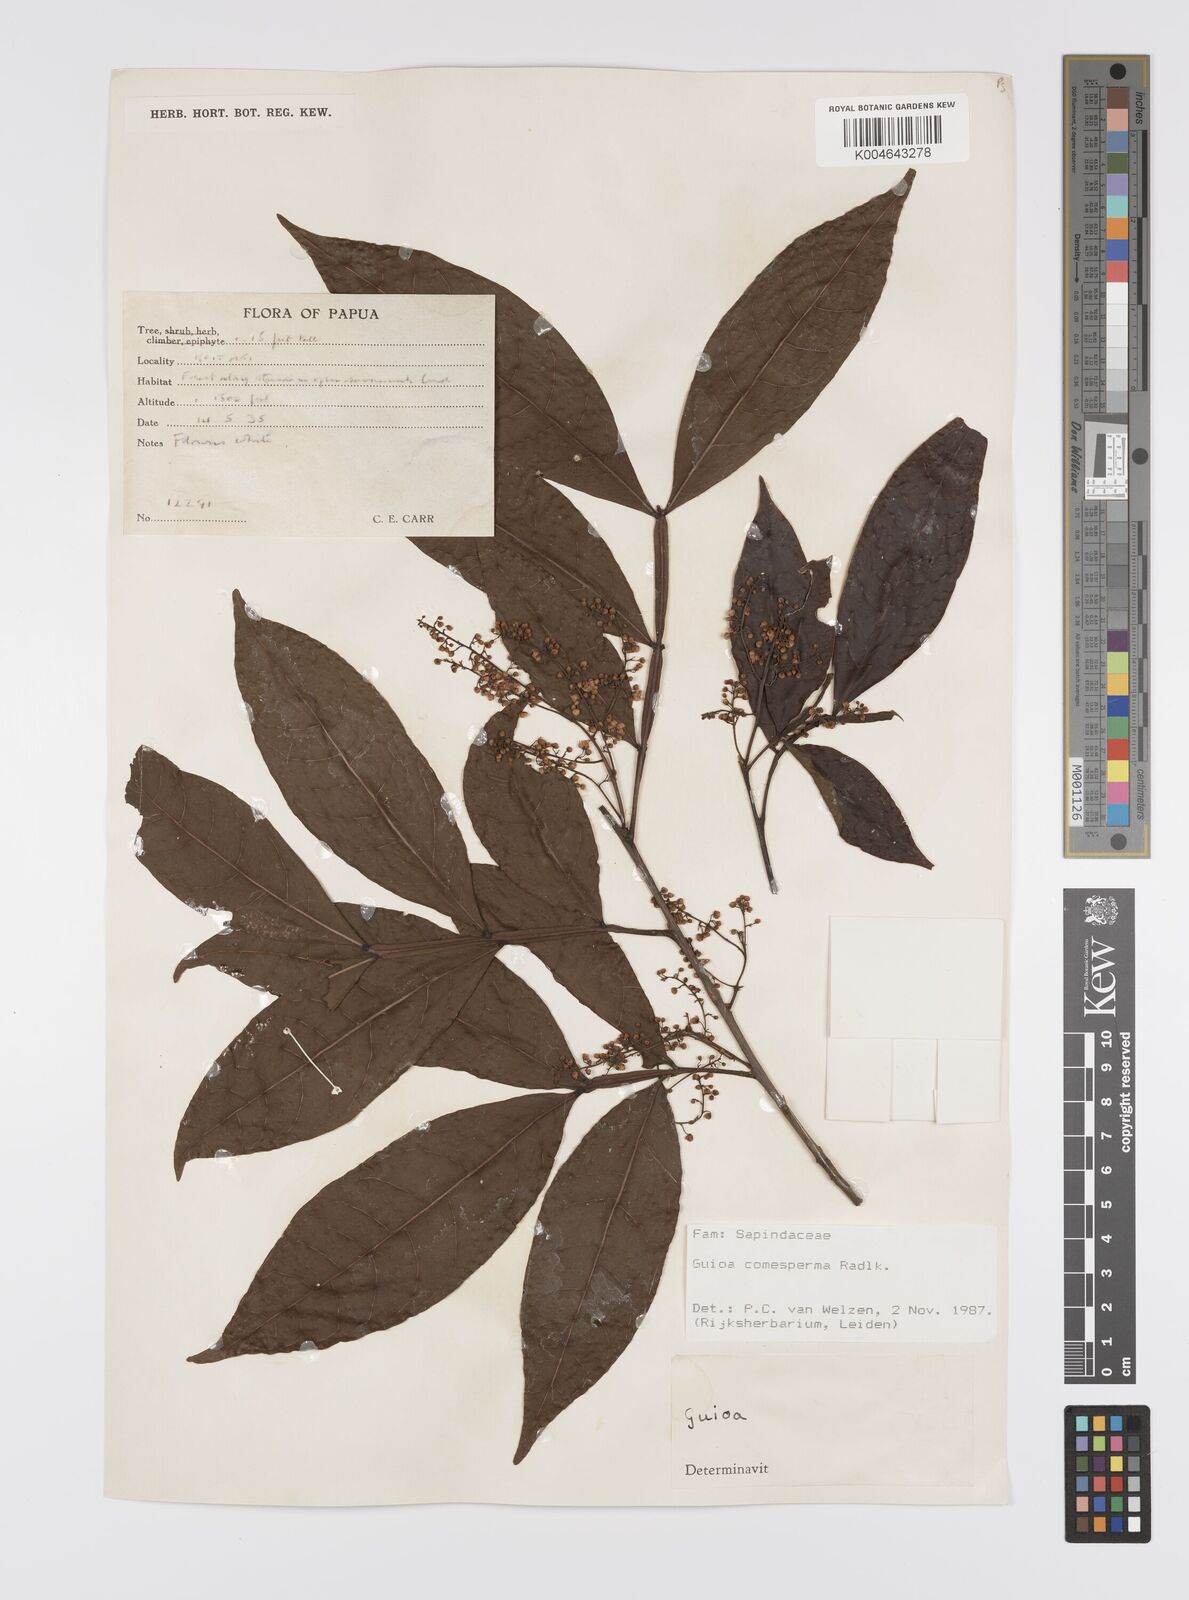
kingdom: Plantae
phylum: Tracheophyta
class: Magnoliopsida
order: Sapindales
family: Sapindaceae
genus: Guioa
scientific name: Guioa comesperma
